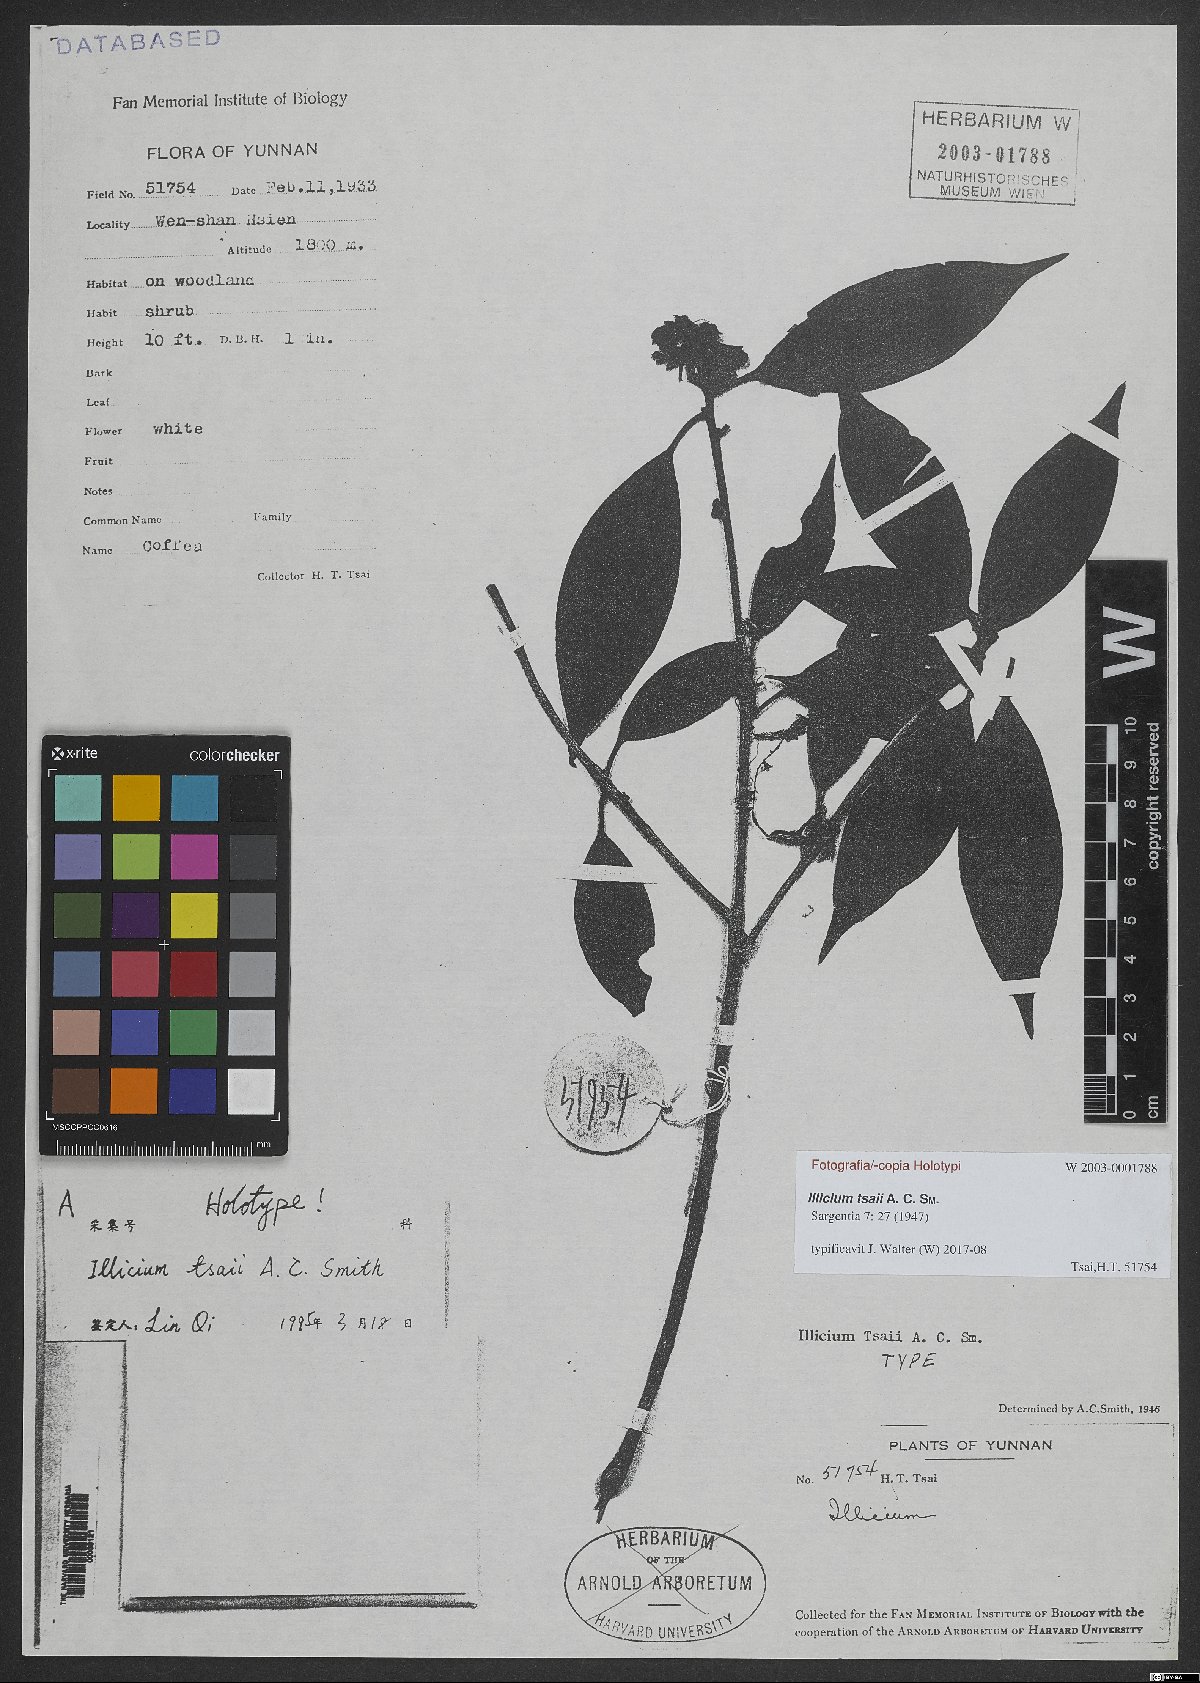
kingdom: Plantae
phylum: Tracheophyta
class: Magnoliopsida
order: Austrobaileyales
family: Schisandraceae
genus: Illicium
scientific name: Illicium tsaii
